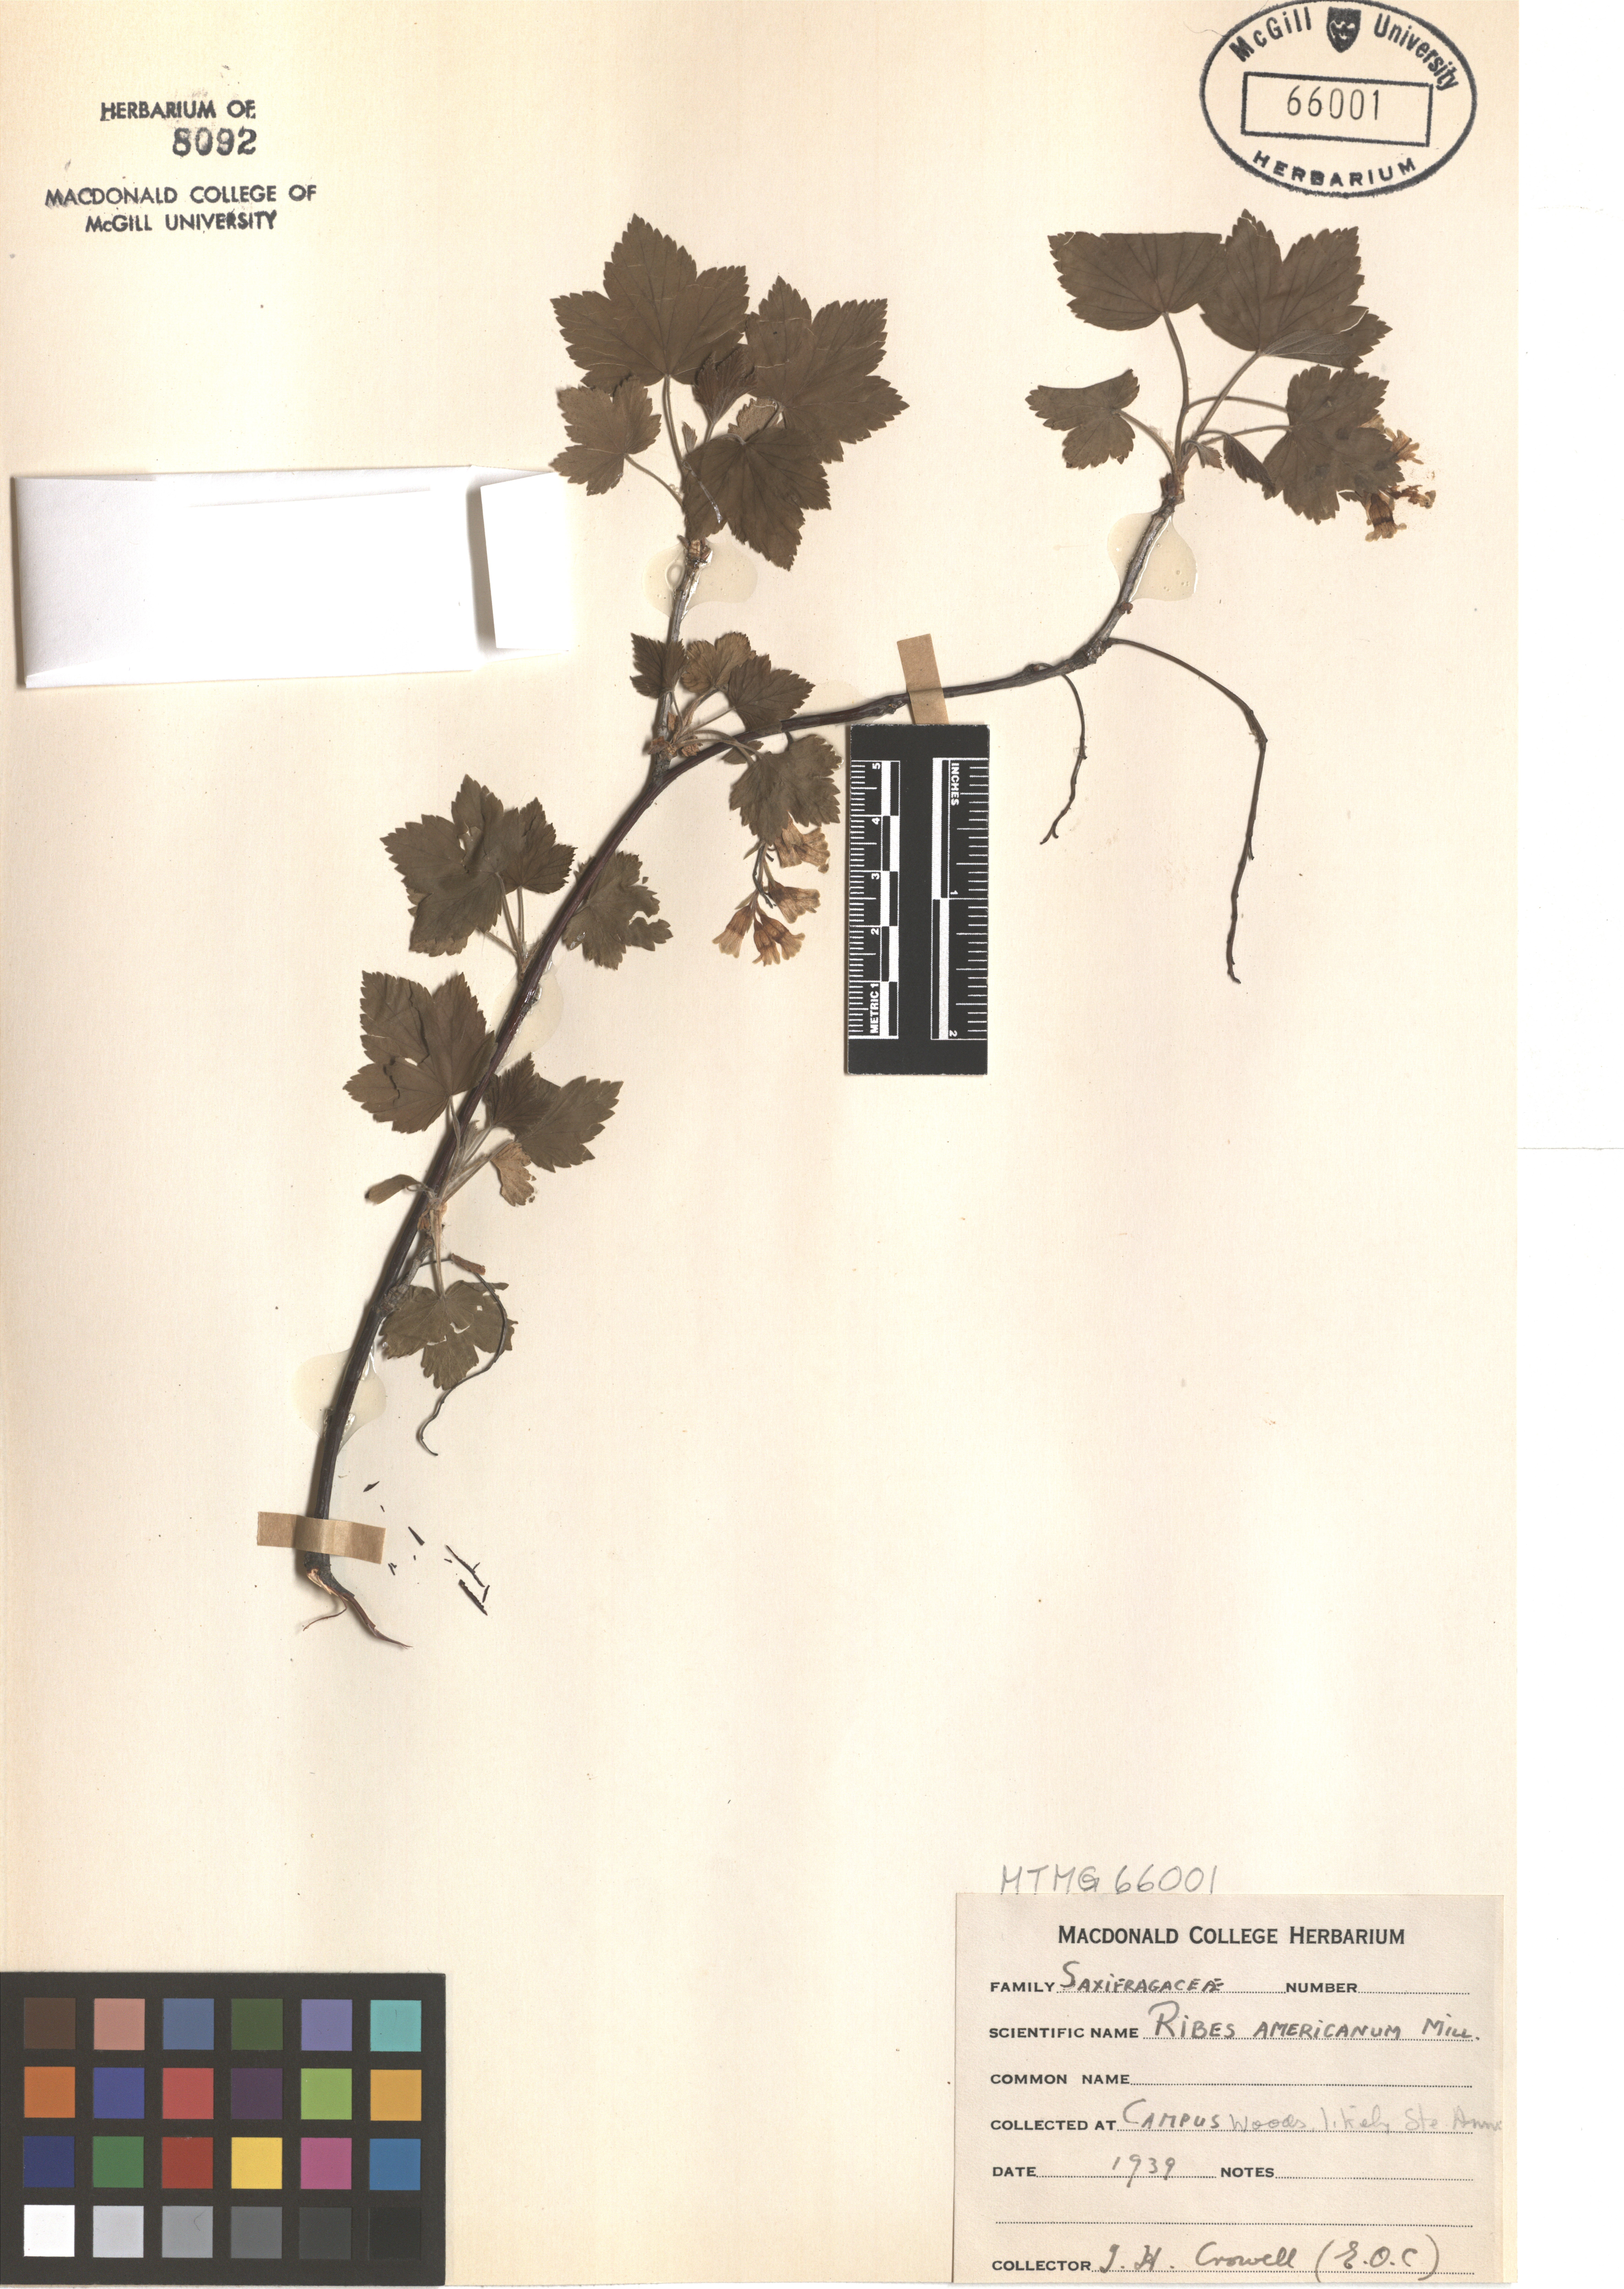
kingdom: Plantae
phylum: Tracheophyta
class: Magnoliopsida
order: Saxifragales
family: Saxifragaceae
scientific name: Saxifragaceae
